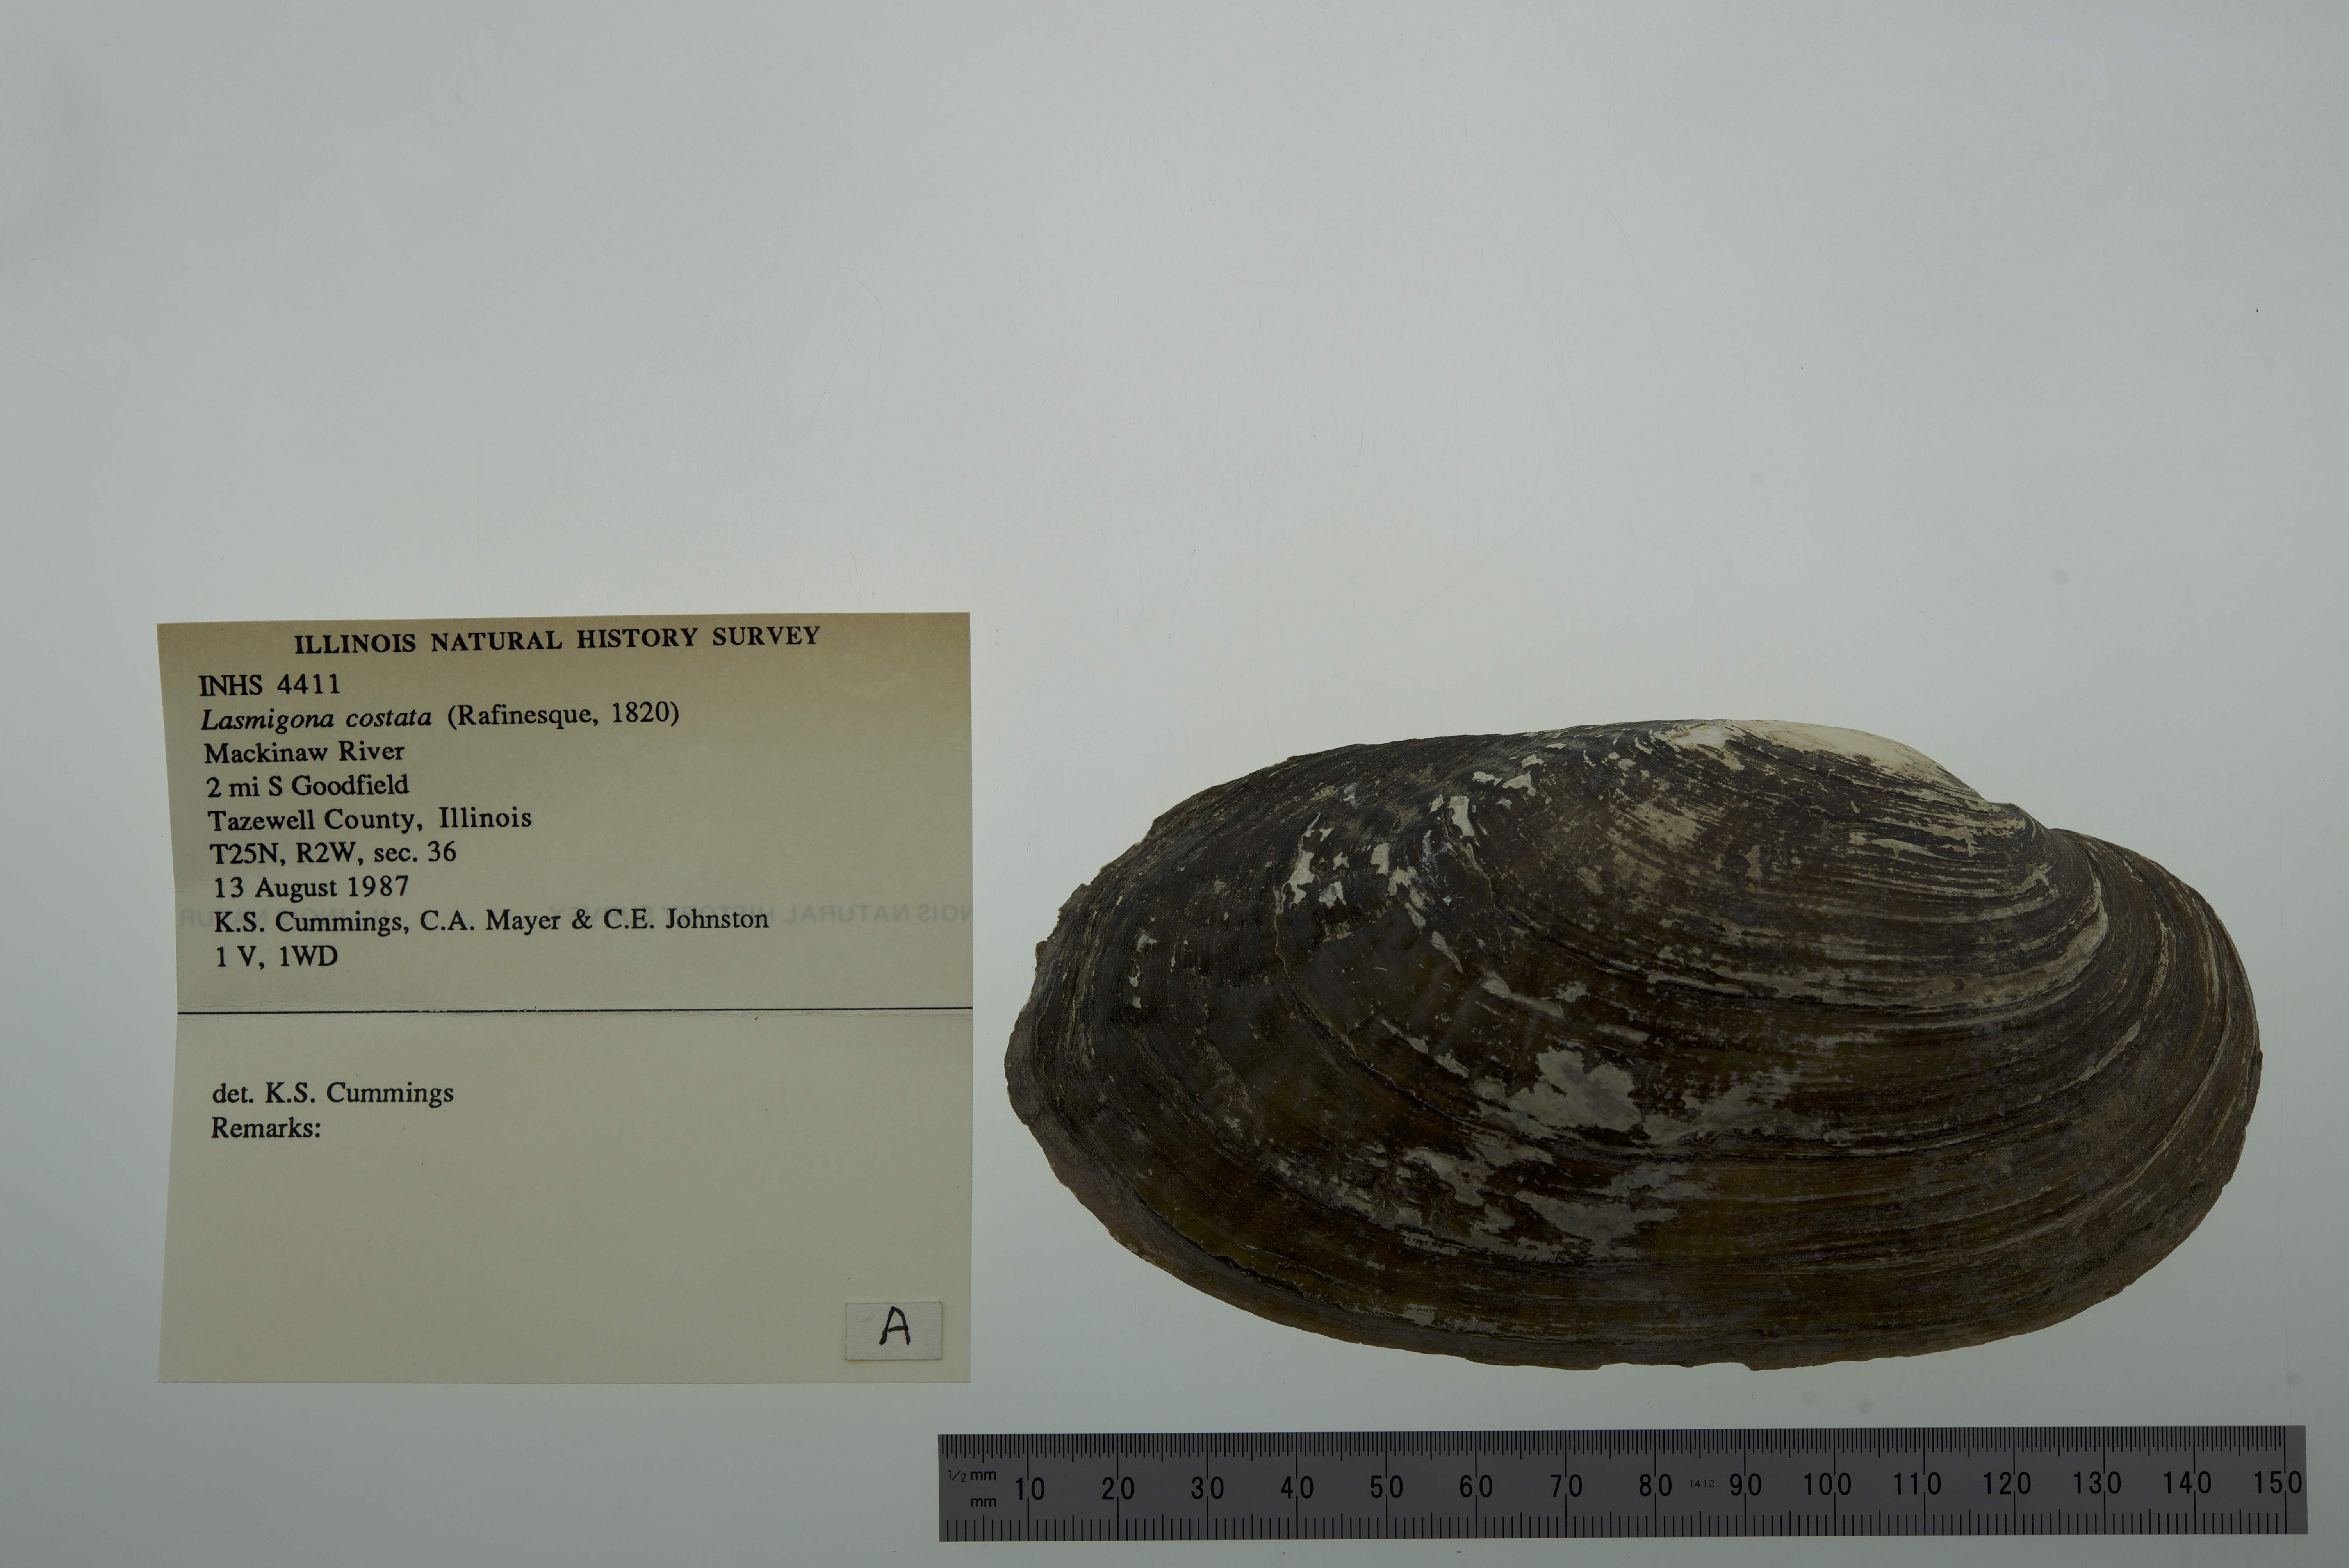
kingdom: Animalia
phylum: Mollusca
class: Bivalvia
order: Unionida
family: Unionidae
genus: Lasmigona
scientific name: Lasmigona costata
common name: Flutedshell
